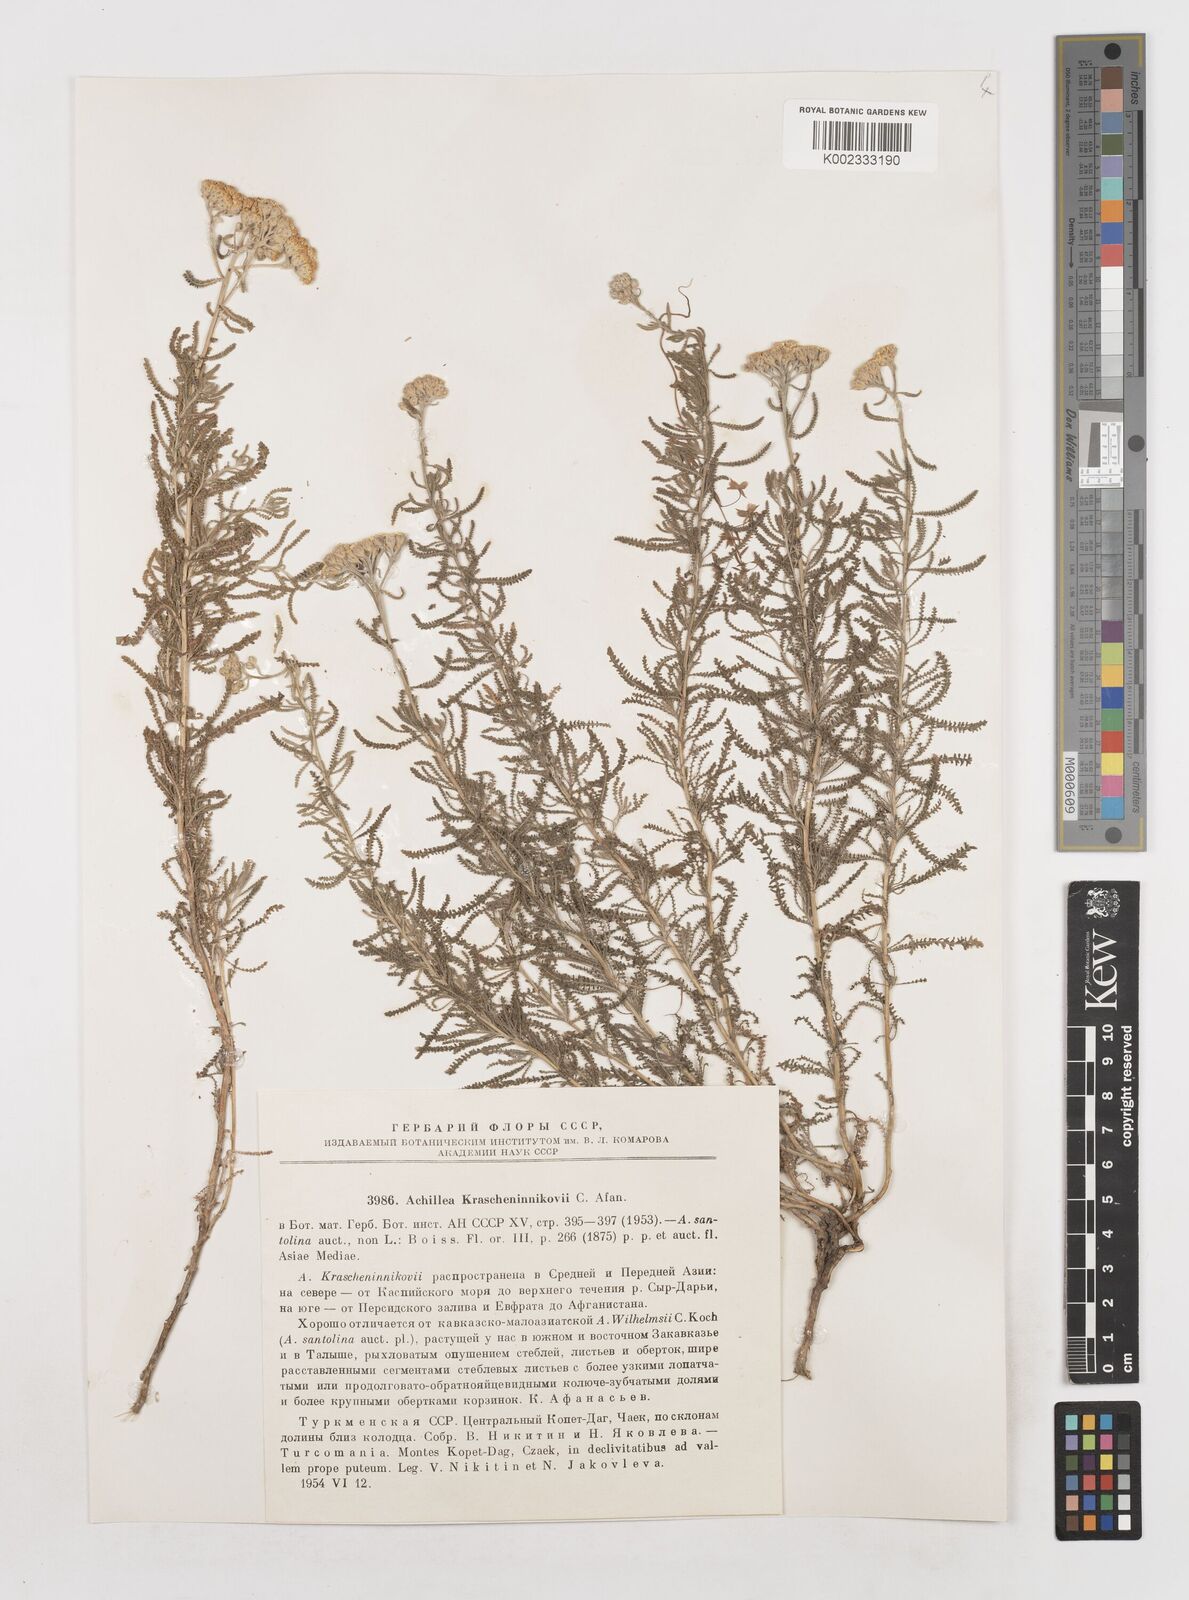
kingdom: Plantae
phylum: Tracheophyta
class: Magnoliopsida
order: Asterales
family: Asteraceae
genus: Achillea
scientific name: Achillea wilhelmsii
